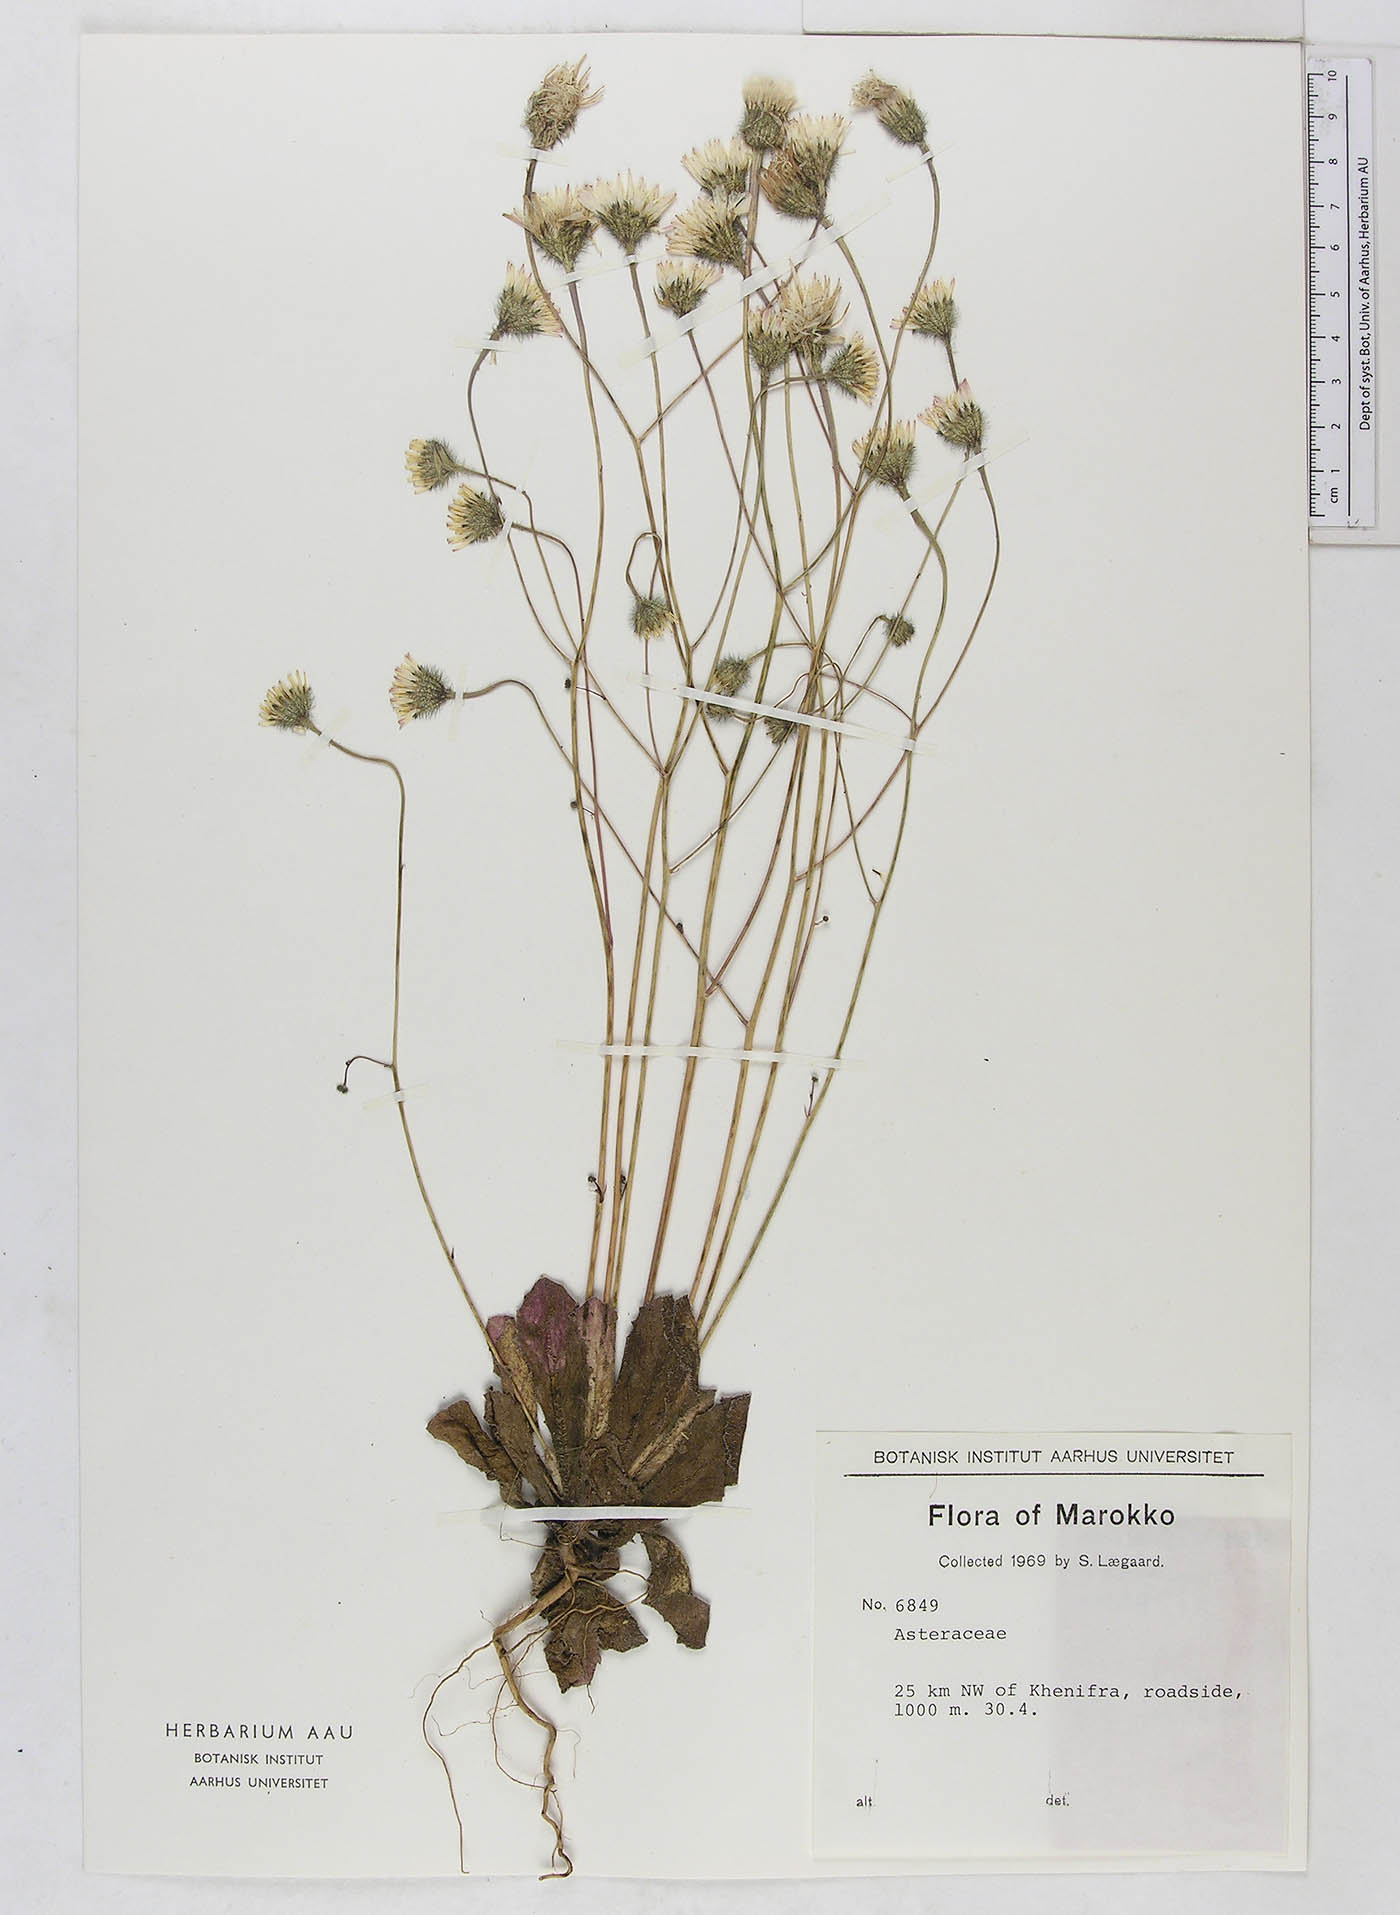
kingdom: Plantae
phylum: Tracheophyta
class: Magnoliopsida
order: Asterales
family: Asteraceae
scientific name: Asteraceae
